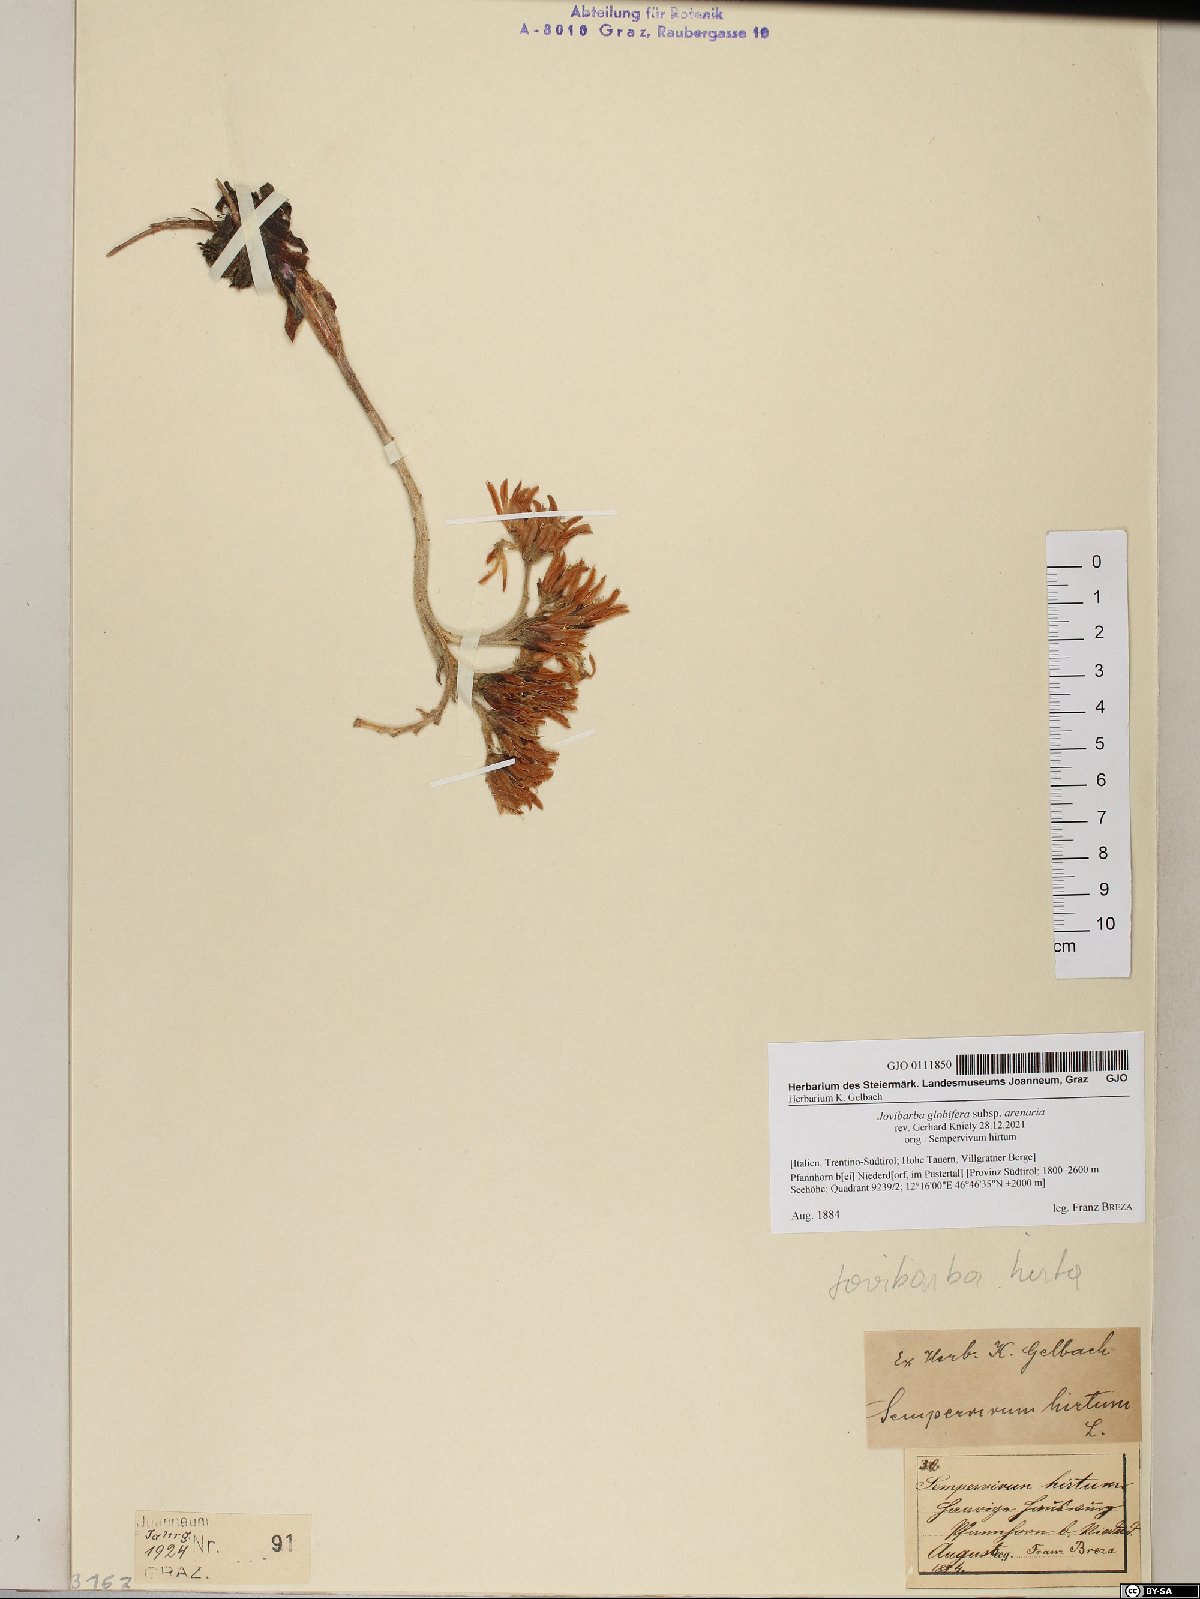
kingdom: Plantae
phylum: Tracheophyta
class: Magnoliopsida
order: Saxifragales
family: Crassulaceae
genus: Sempervivum
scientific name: Sempervivum globiferum
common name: Rolling hen-and-chicks
